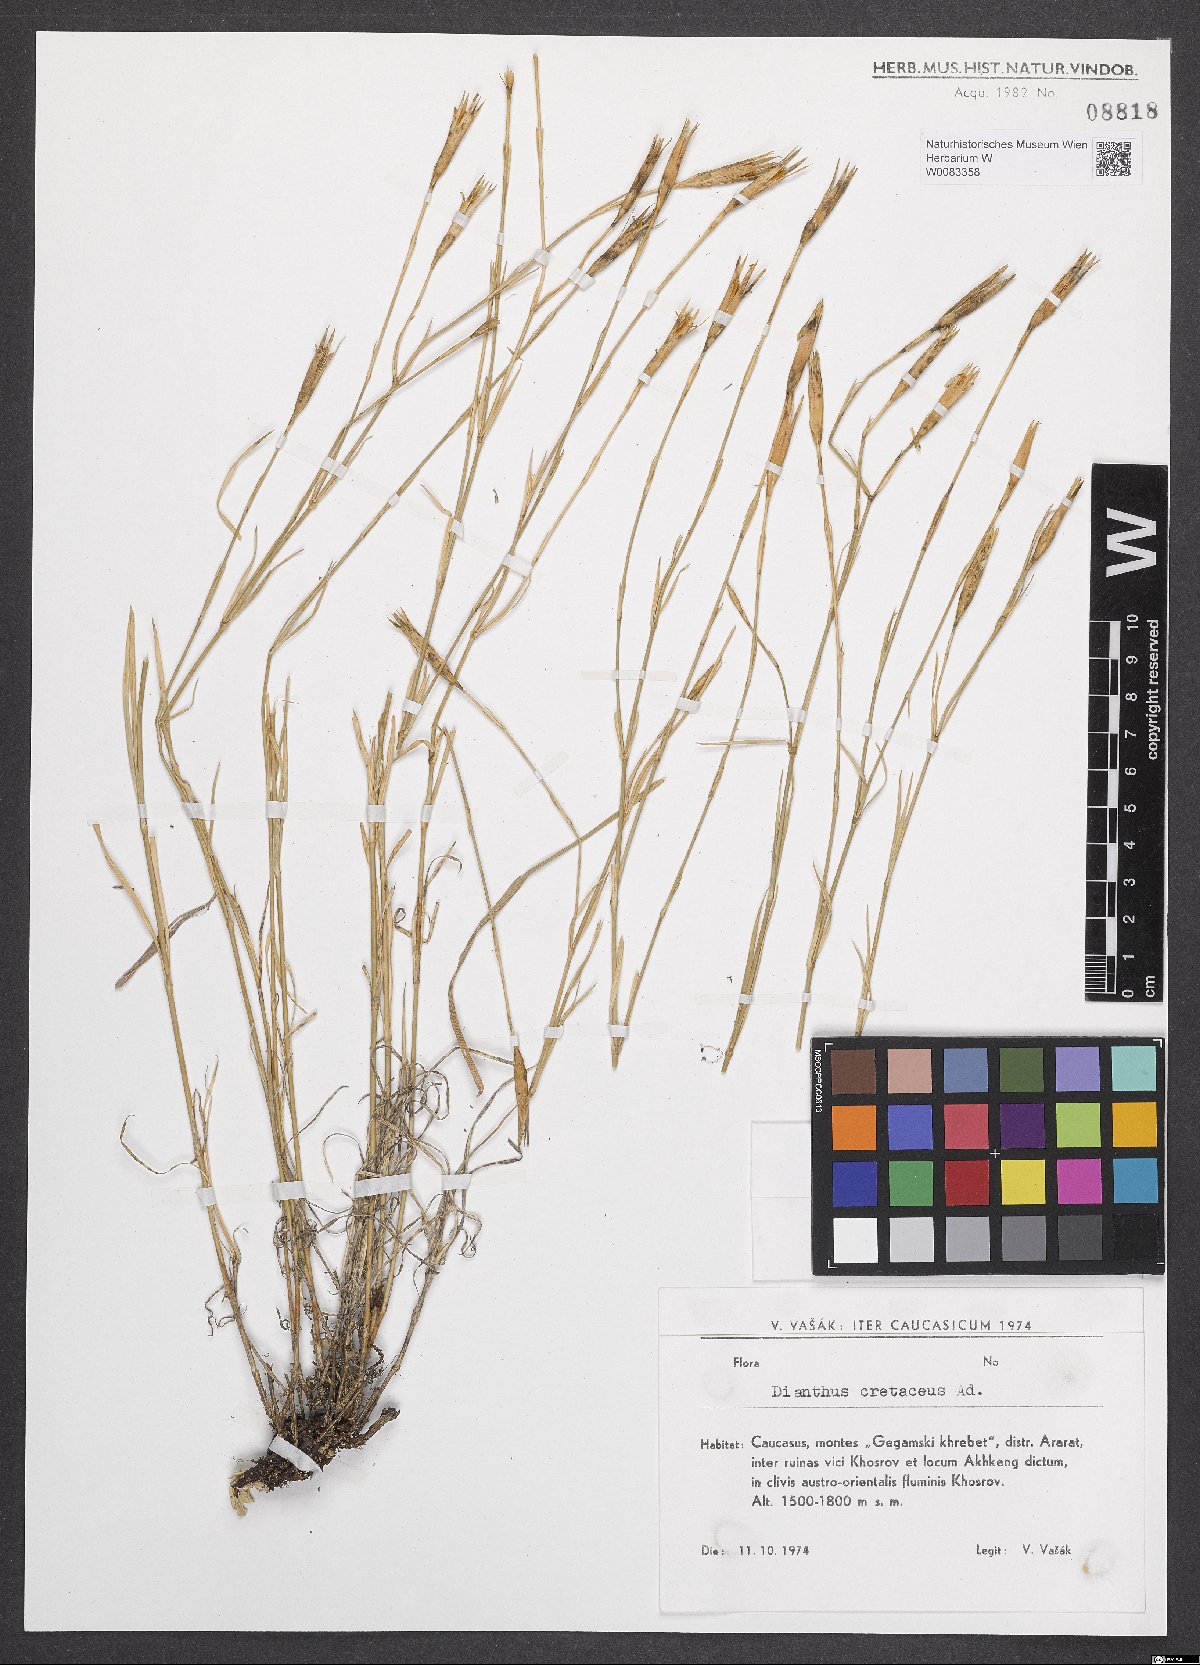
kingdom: Plantae
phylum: Tracheophyta
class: Magnoliopsida
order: Caryophyllales
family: Caryophyllaceae
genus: Dianthus
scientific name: Dianthus cretaceus
